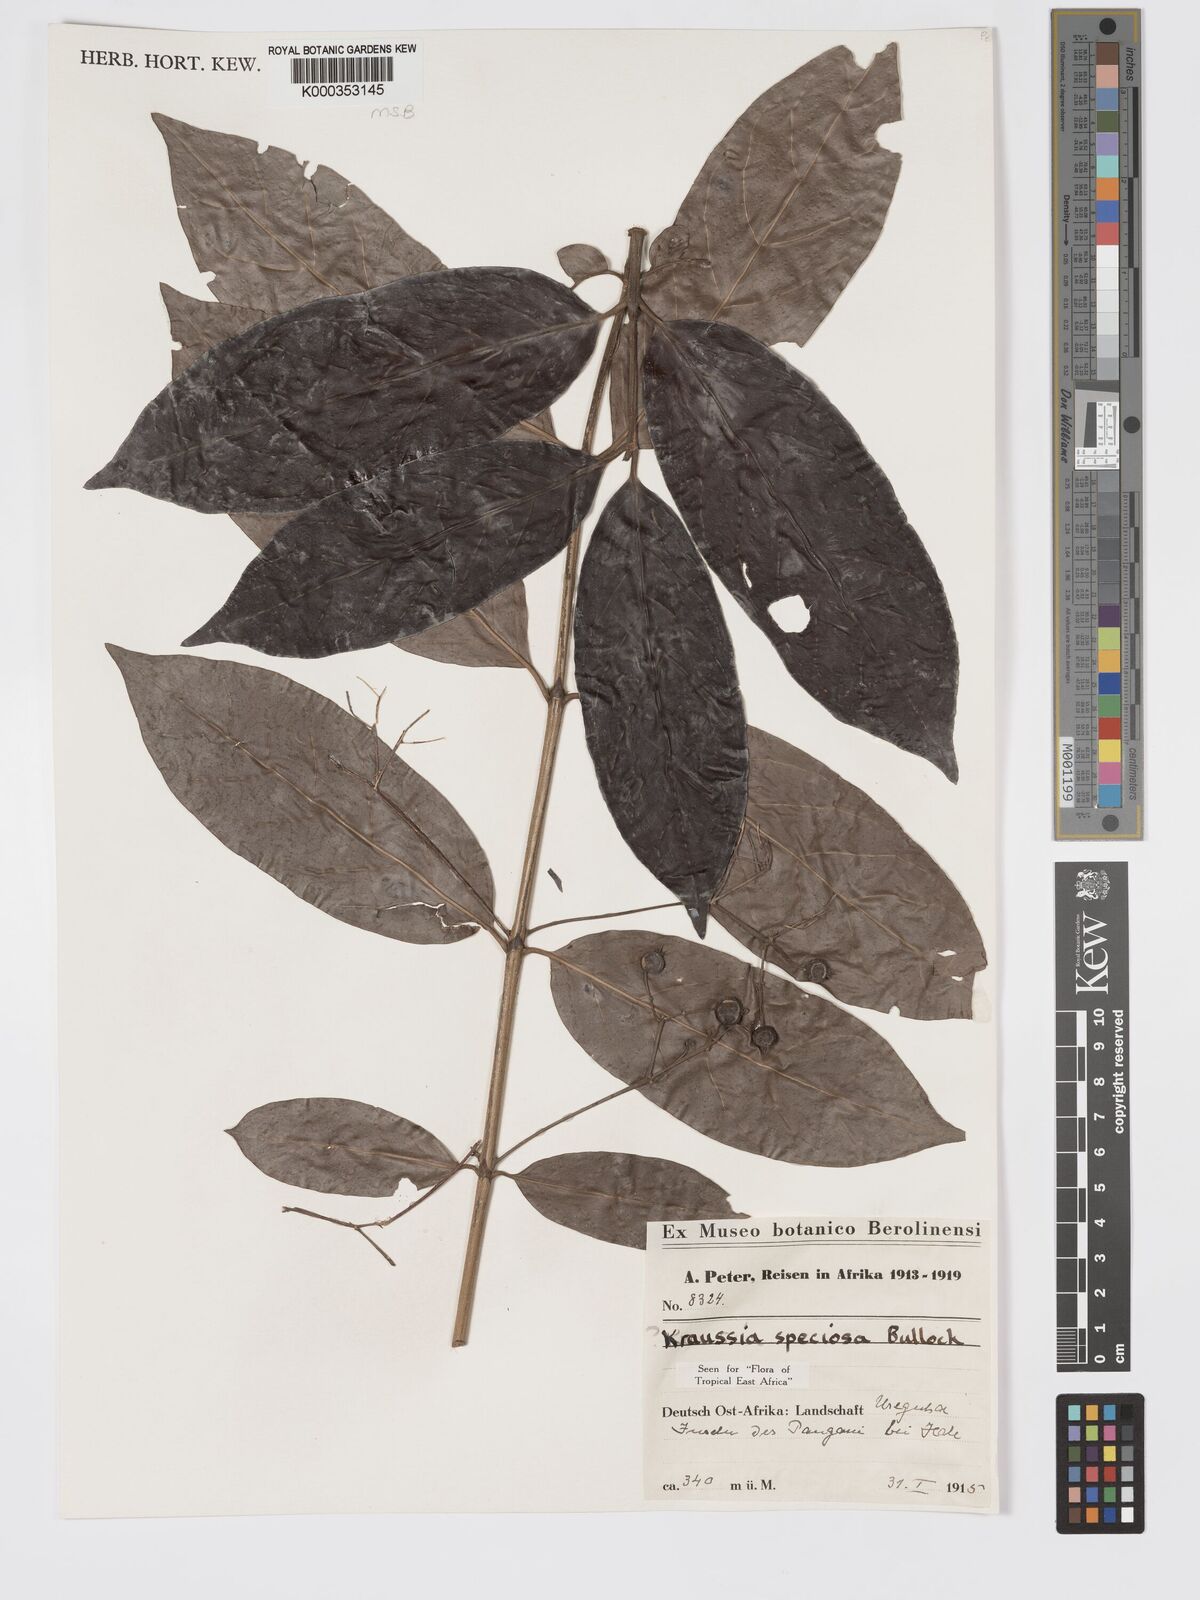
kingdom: Plantae
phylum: Tracheophyta
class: Magnoliopsida
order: Gentianales
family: Rubiaceae
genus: Kraussia
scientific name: Kraussia speciosa
